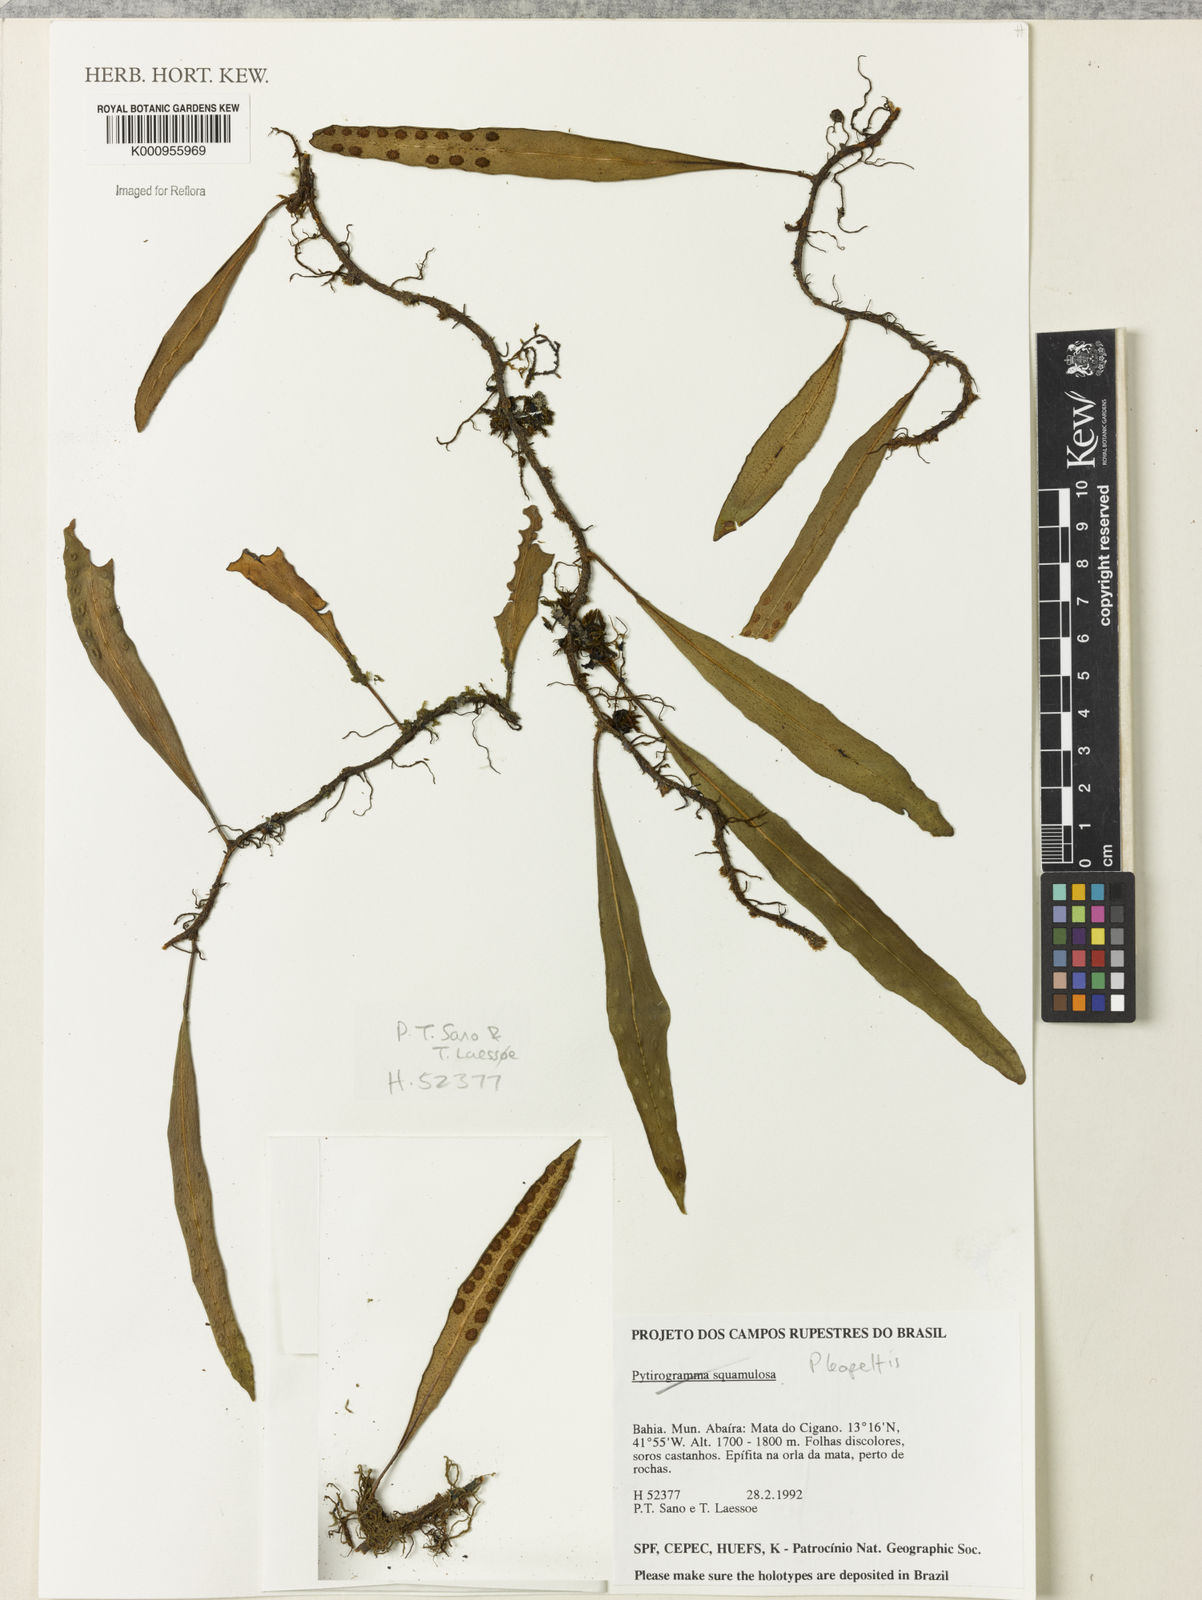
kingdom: Plantae
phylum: Tracheophyta
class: Polypodiopsida
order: Polypodiales
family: Polypodiaceae
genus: Pleopeltis
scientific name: Pleopeltis
